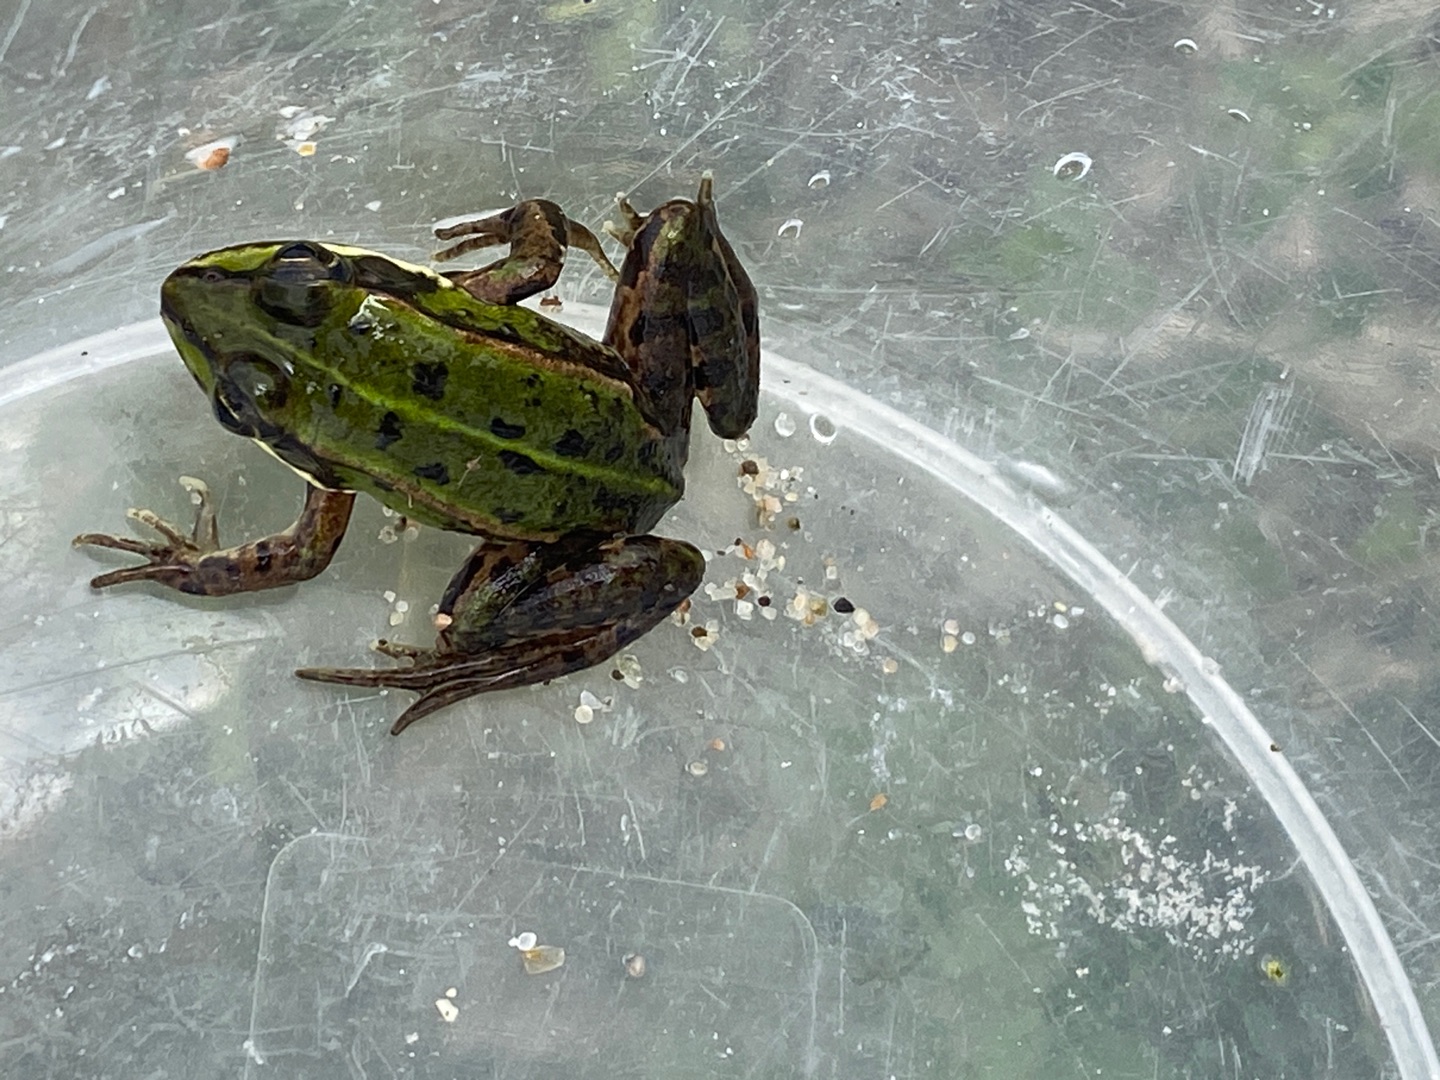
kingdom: Animalia
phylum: Chordata
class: Amphibia
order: Anura
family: Ranidae
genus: Pelophylax
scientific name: Pelophylax lessonae
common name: Grøn frø
